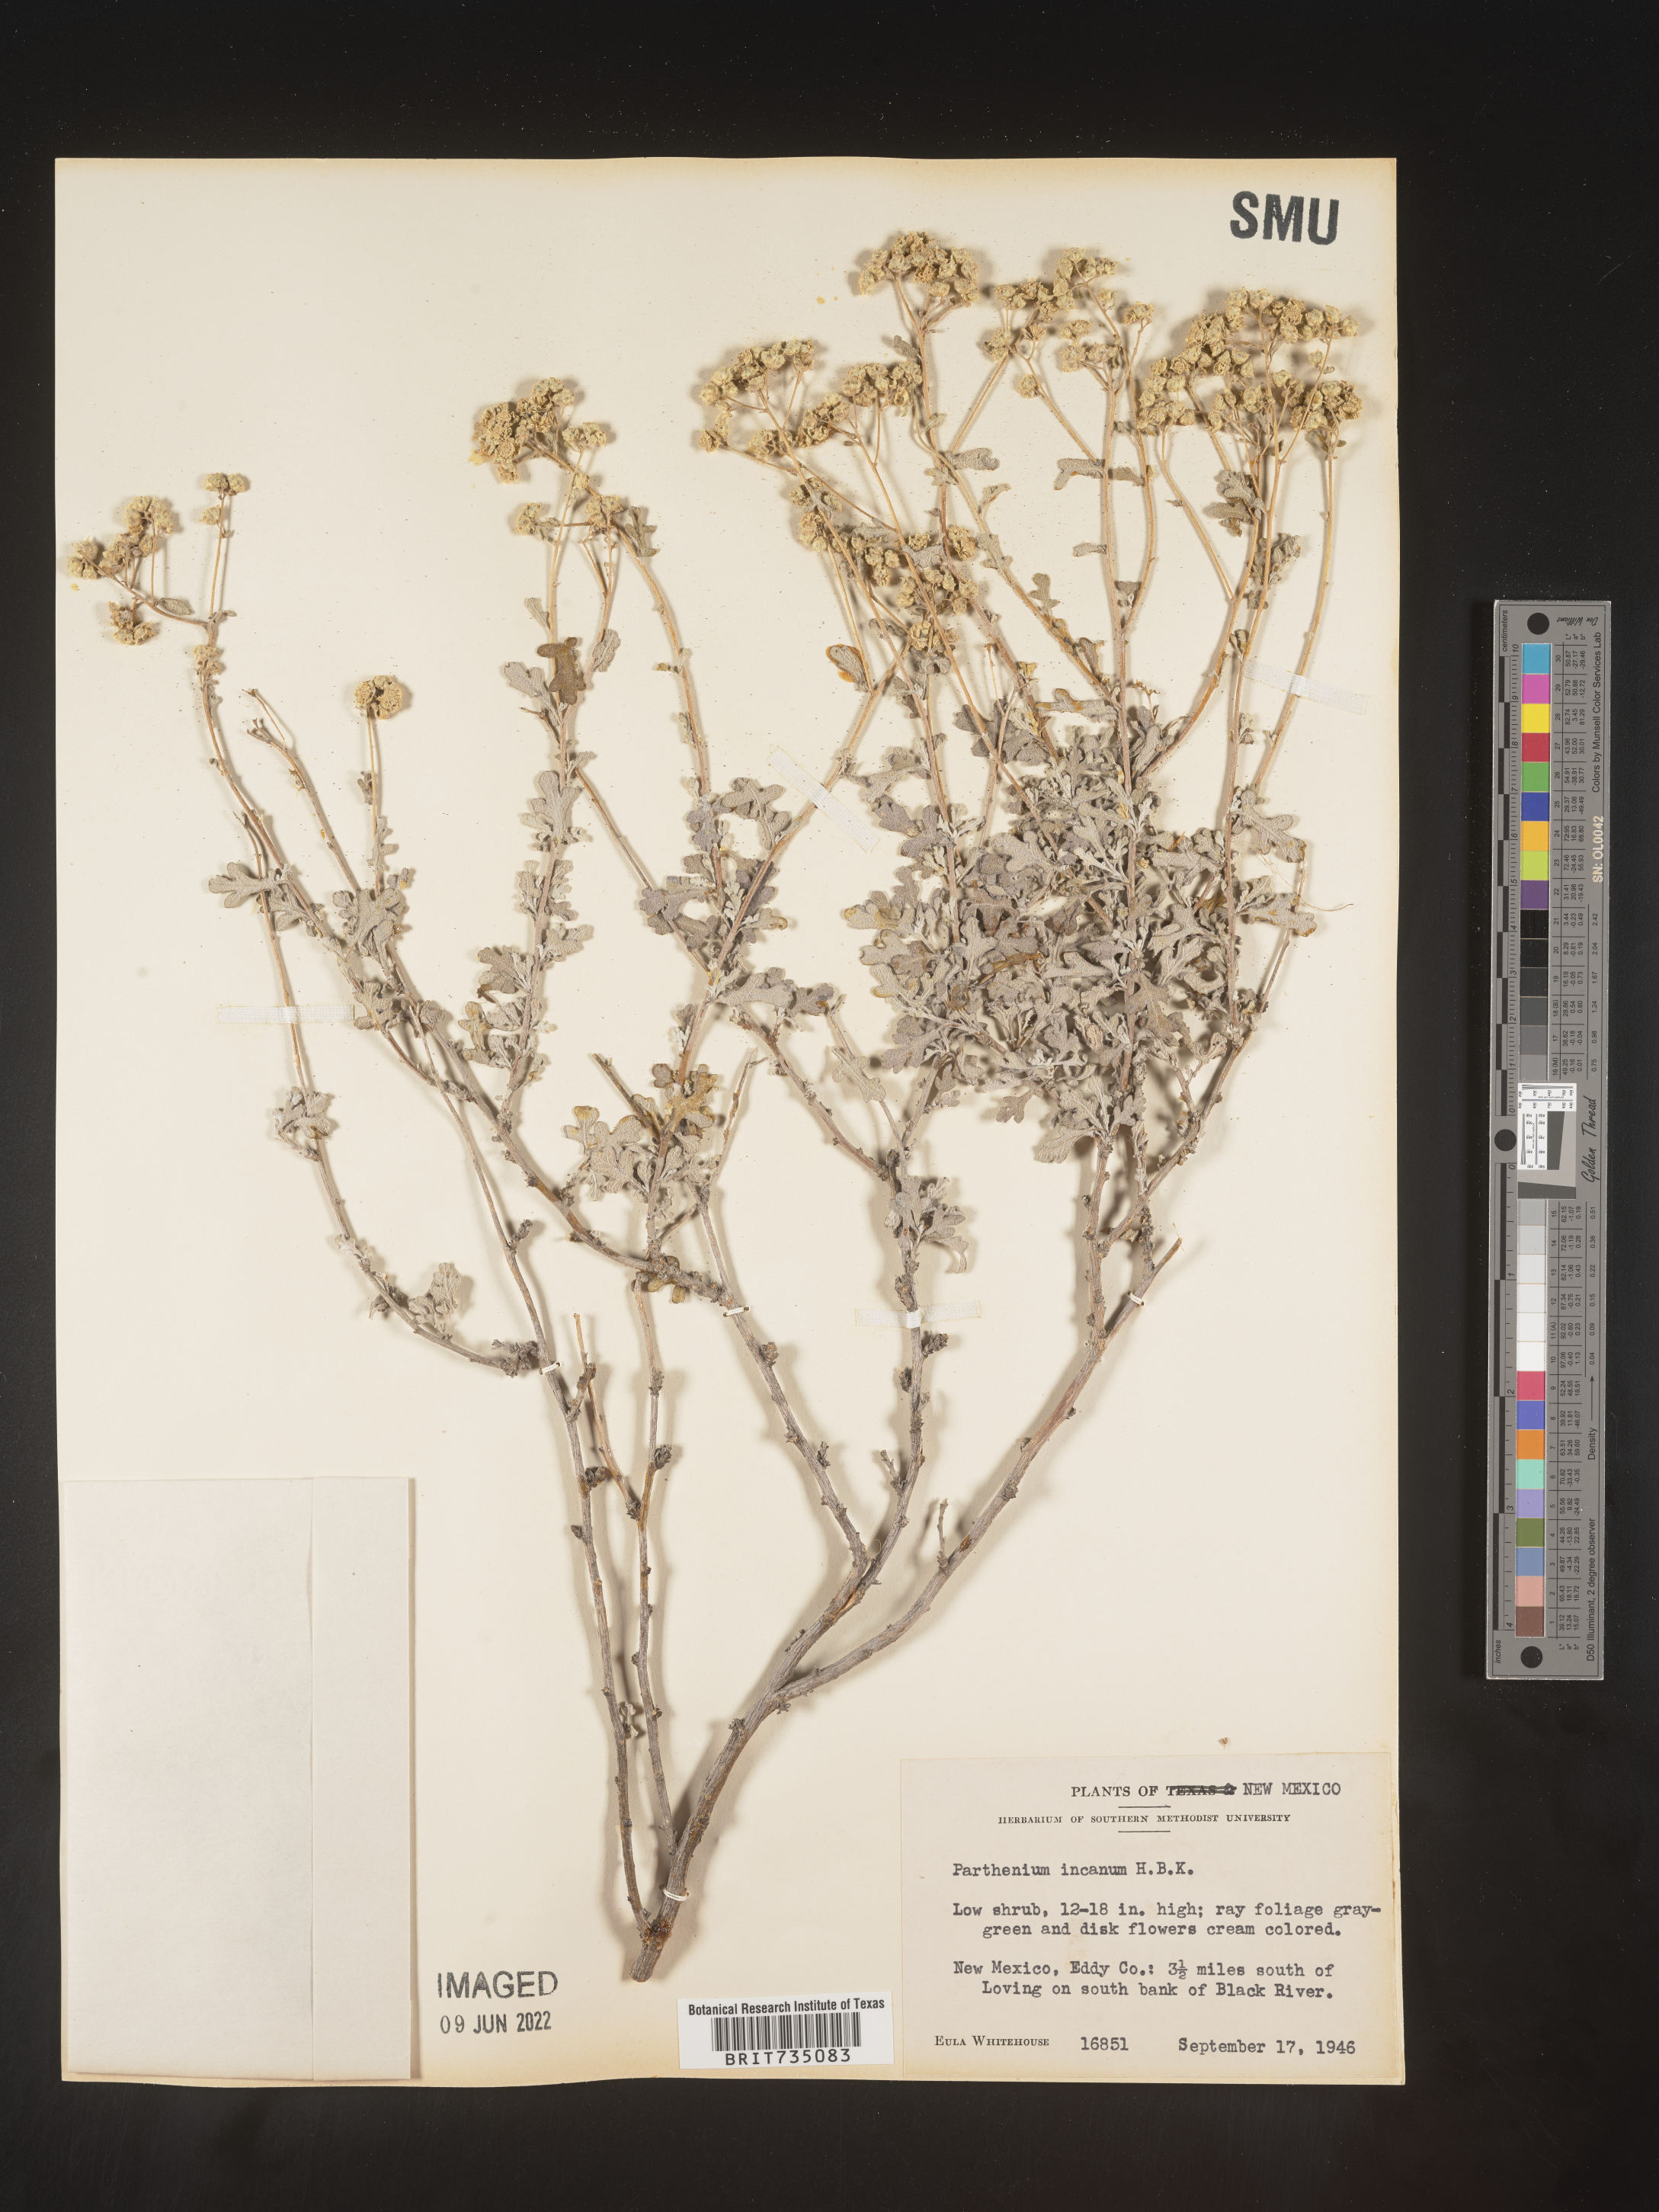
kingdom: Plantae
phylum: Tracheophyta
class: Magnoliopsida
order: Asterales
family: Asteraceae
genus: Parthenium
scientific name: Parthenium incanum
